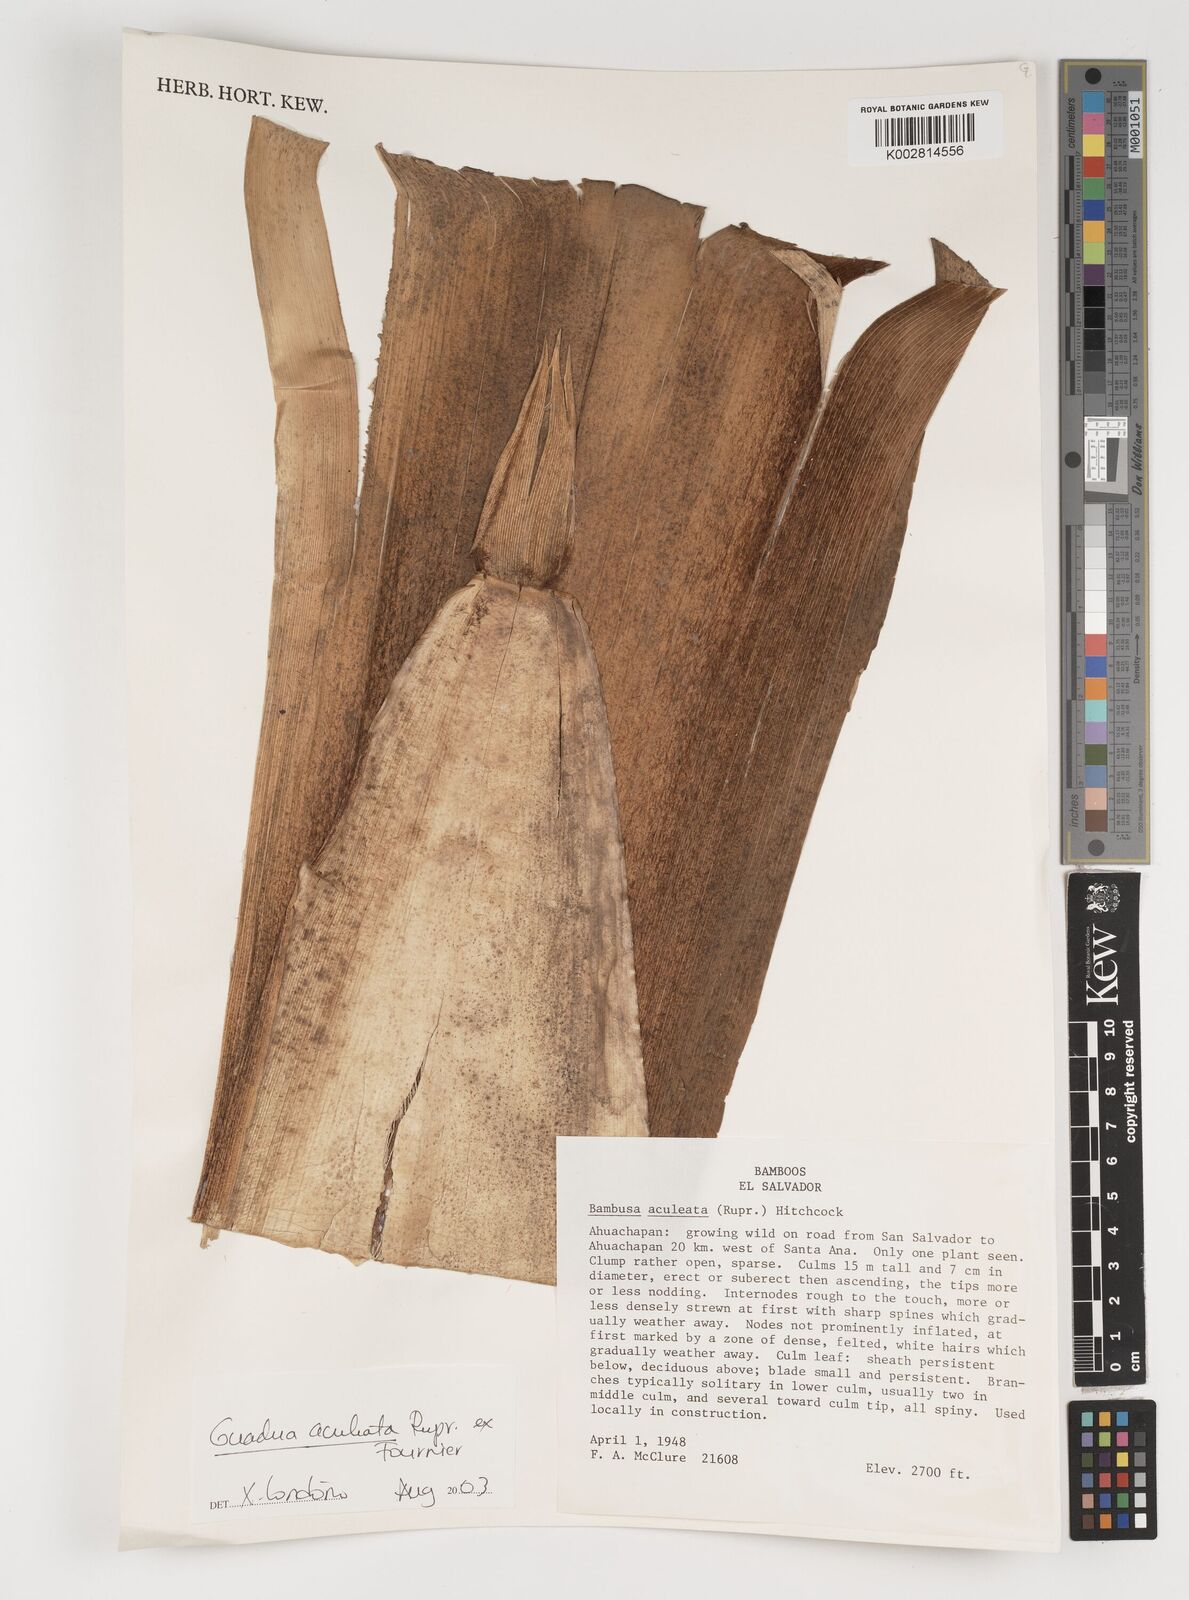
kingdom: Plantae
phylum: Tracheophyta
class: Liliopsida
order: Poales
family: Poaceae
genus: Guadua
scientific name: Guadua aculeata
